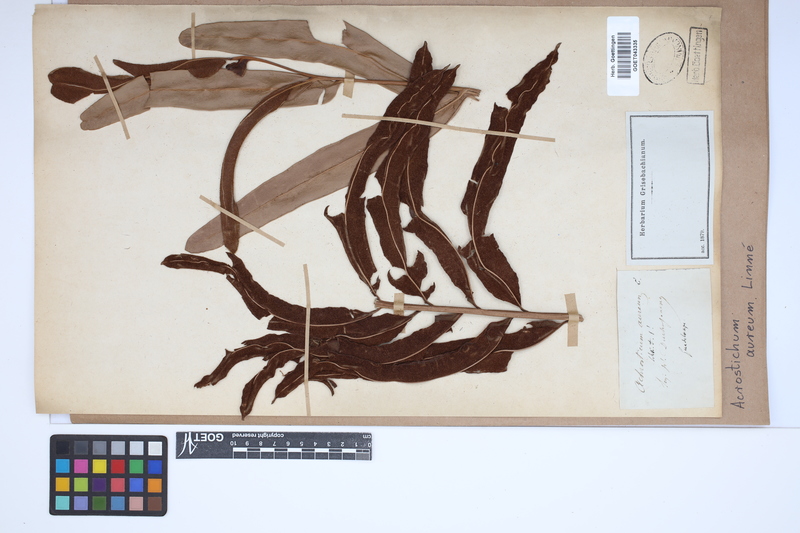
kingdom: Plantae
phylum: Tracheophyta
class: Polypodiopsida
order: Polypodiales
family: Pteridaceae
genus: Acrostichum
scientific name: Acrostichum aureum
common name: Leather fern
